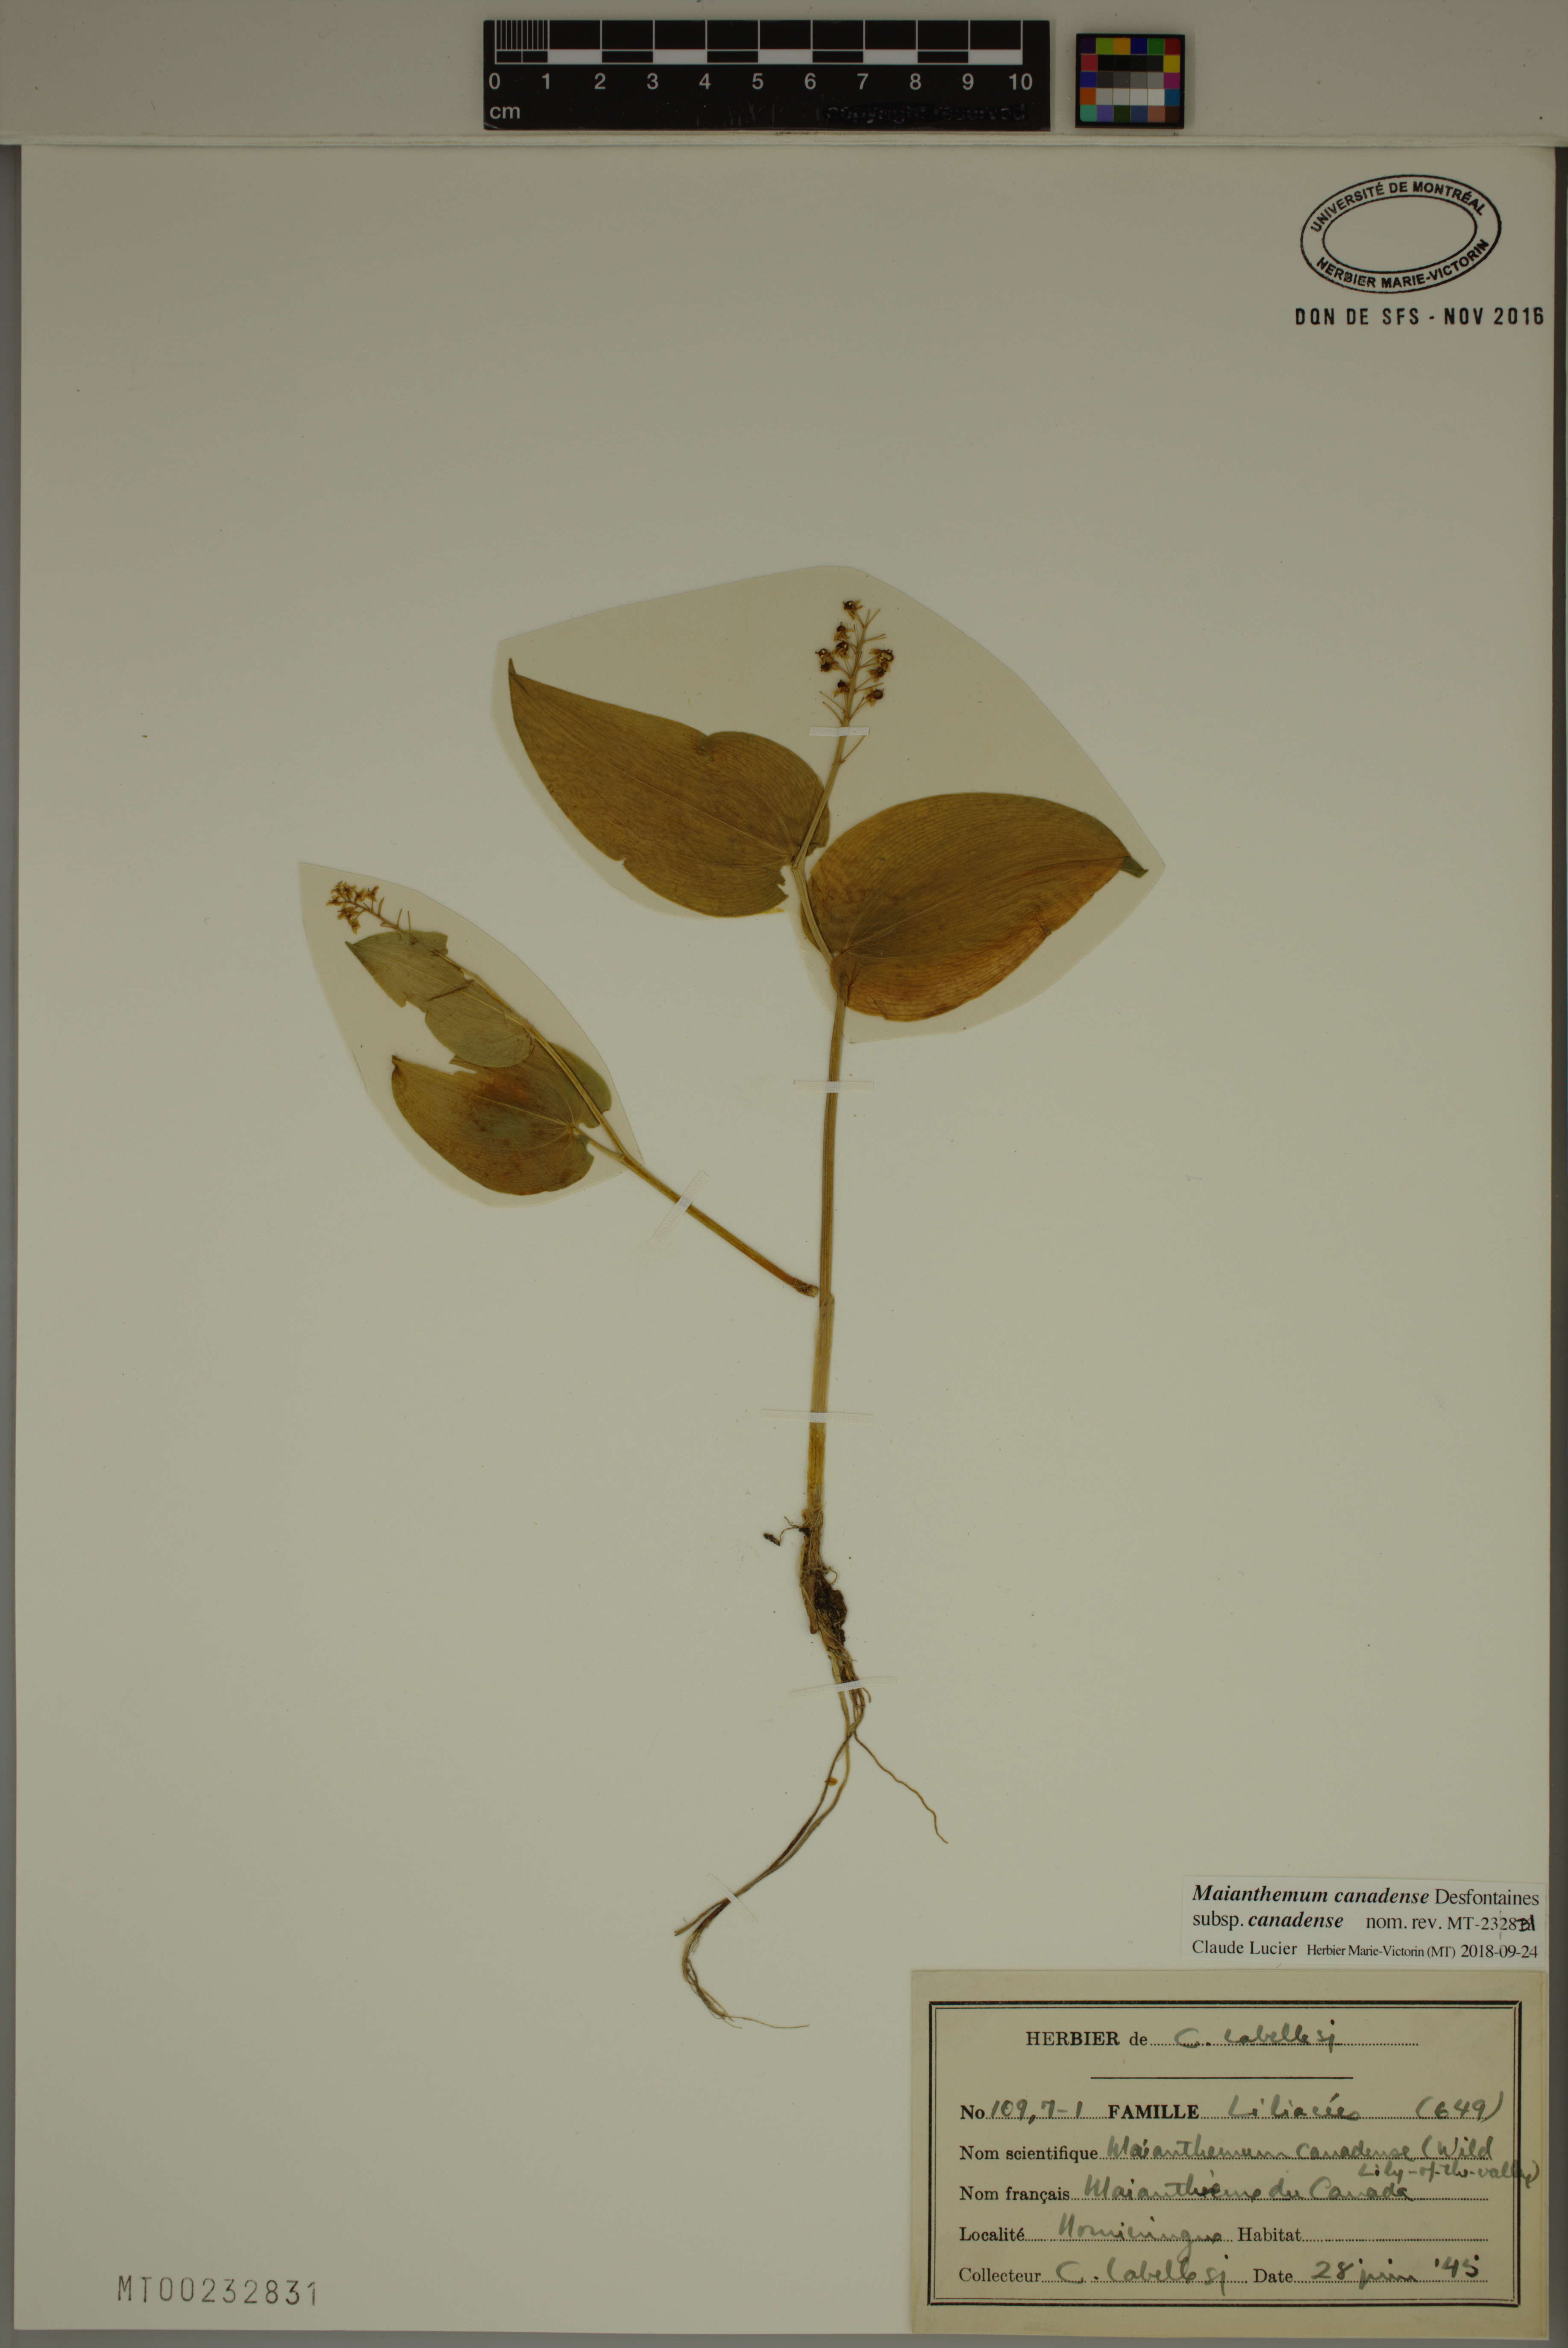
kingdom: Plantae
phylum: Tracheophyta
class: Liliopsida
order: Asparagales
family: Asparagaceae
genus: Maianthemum
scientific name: Maianthemum canadense
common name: False lily-of-the-valley
